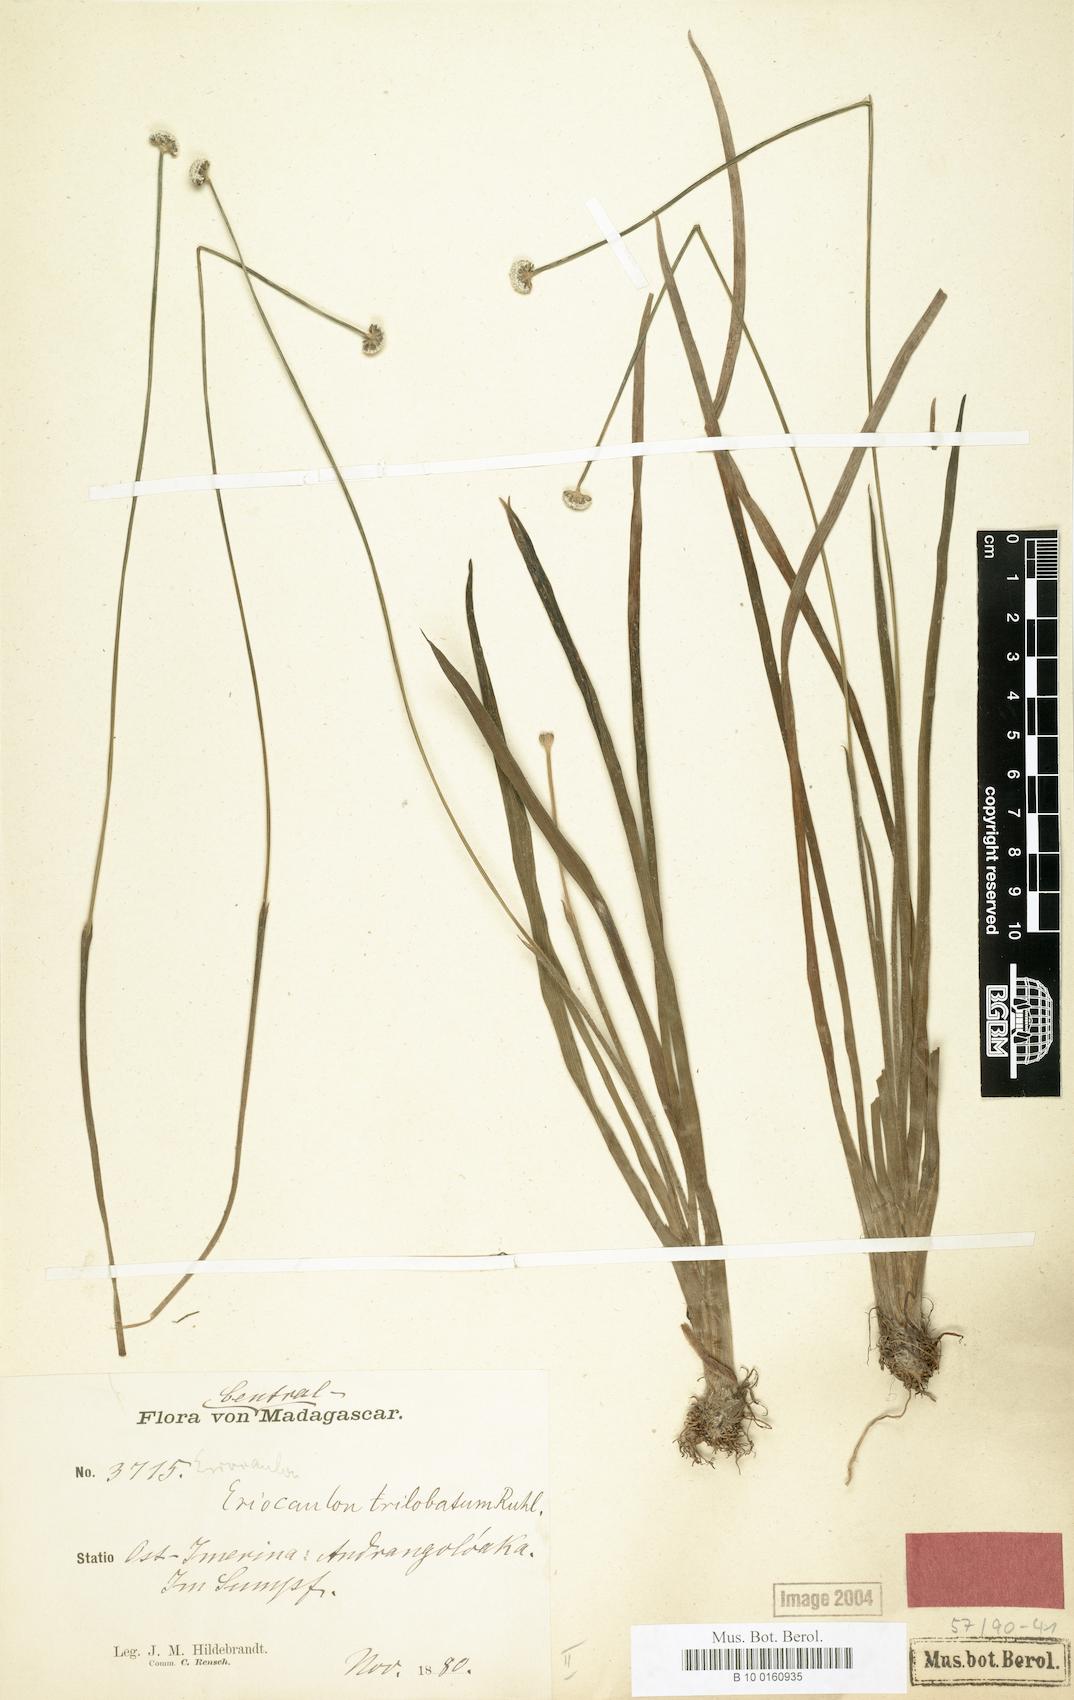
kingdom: Plantae
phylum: Tracheophyta
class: Liliopsida
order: Poales
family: Eriocaulaceae
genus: Eriocaulon
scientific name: Eriocaulon trilobatum
